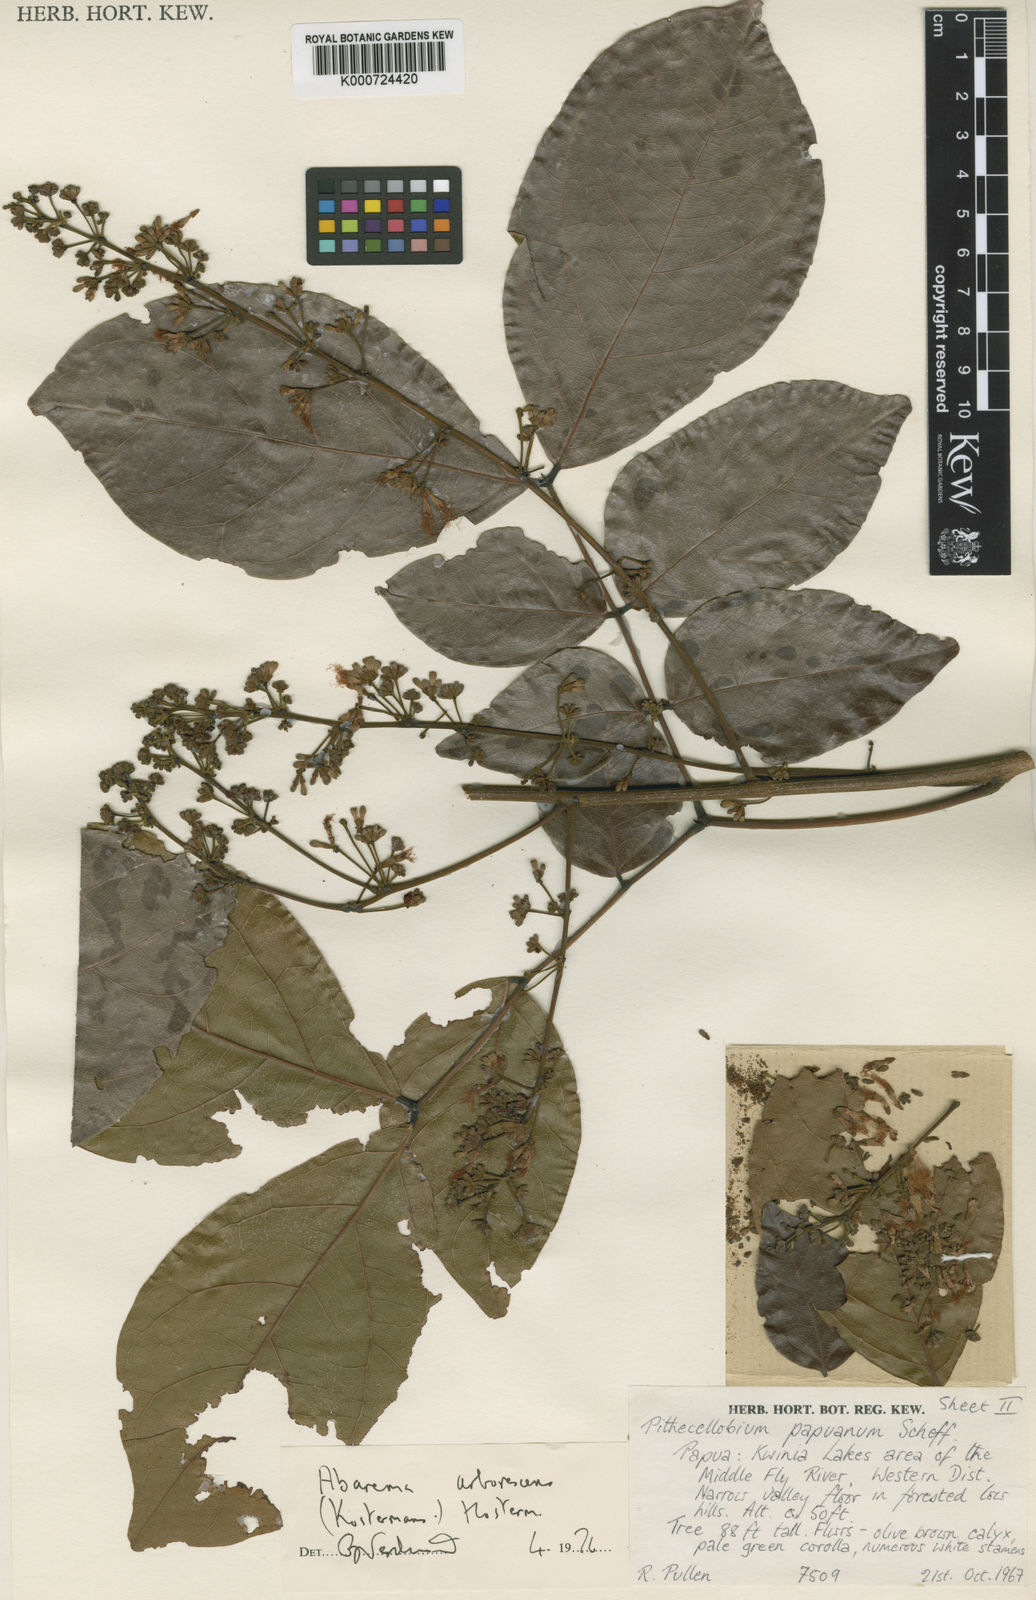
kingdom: Plantae
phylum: Tracheophyta
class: Magnoliopsida
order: Fabales
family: Fabaceae
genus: Archidendron
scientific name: Archidendron arborescens
